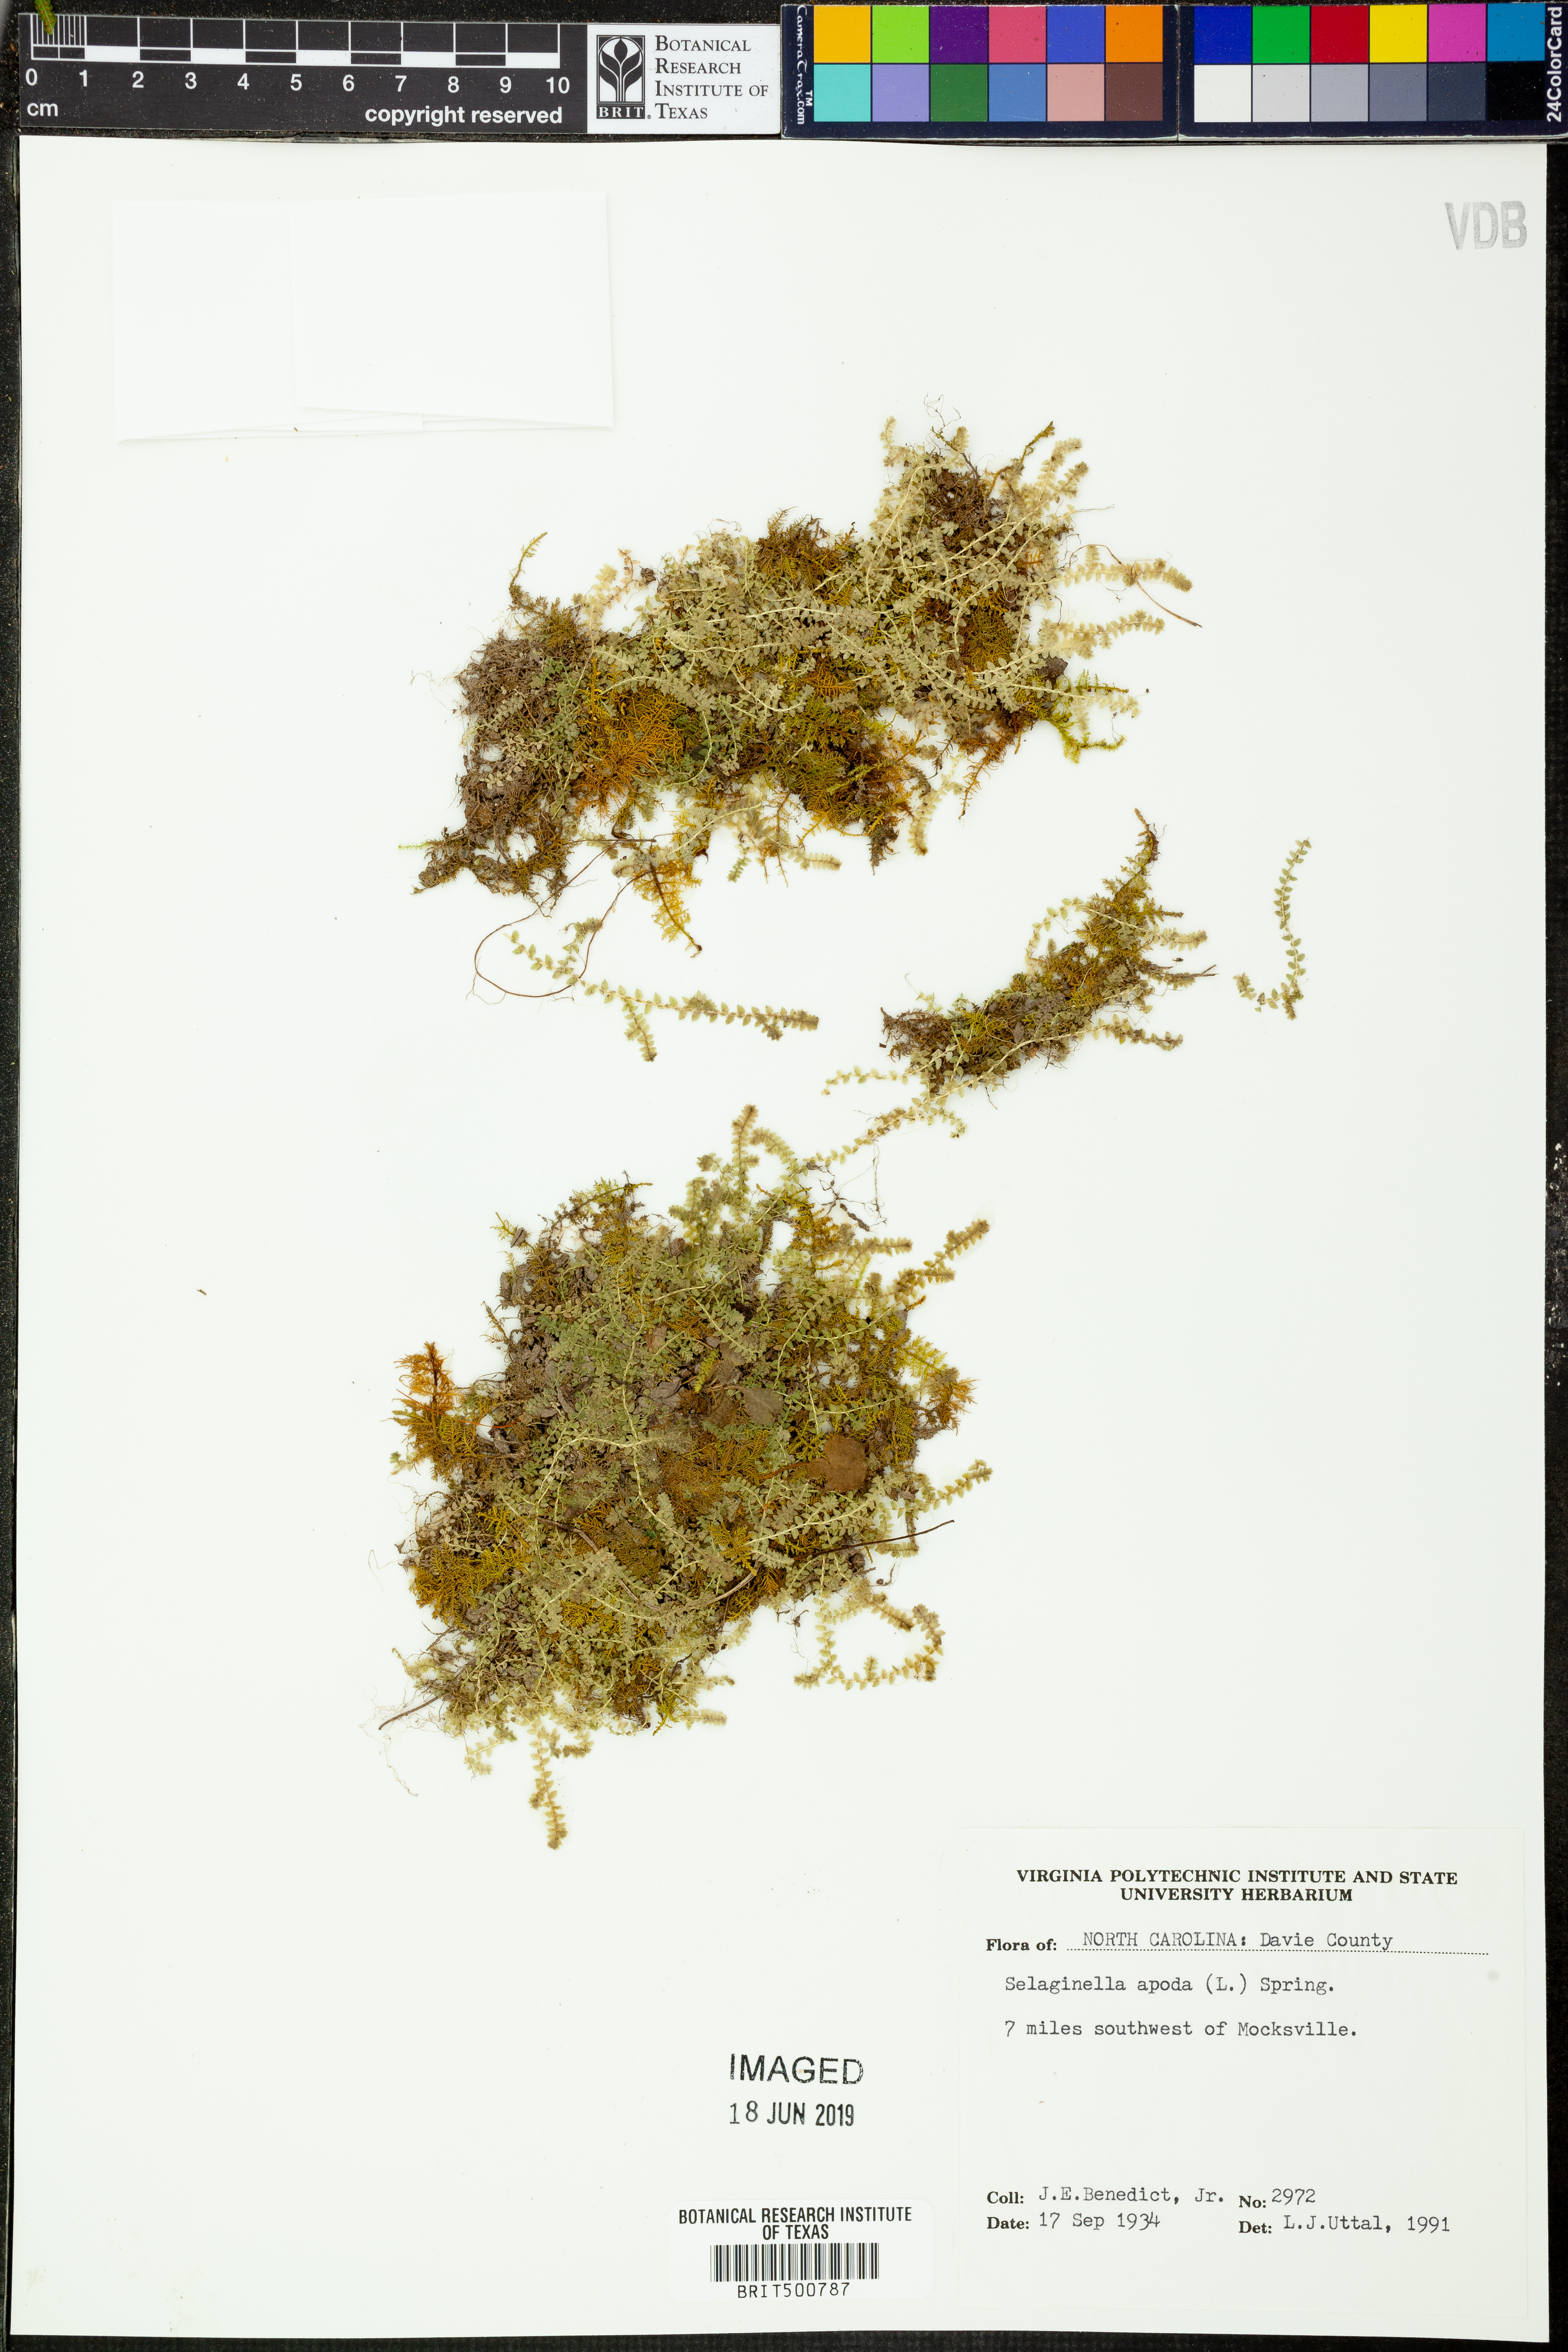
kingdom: Plantae
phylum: Tracheophyta
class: Lycopodiopsida
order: Selaginellales
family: Selaginellaceae
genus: Selaginella
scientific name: Selaginella apoda
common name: Creeping spikemoss
